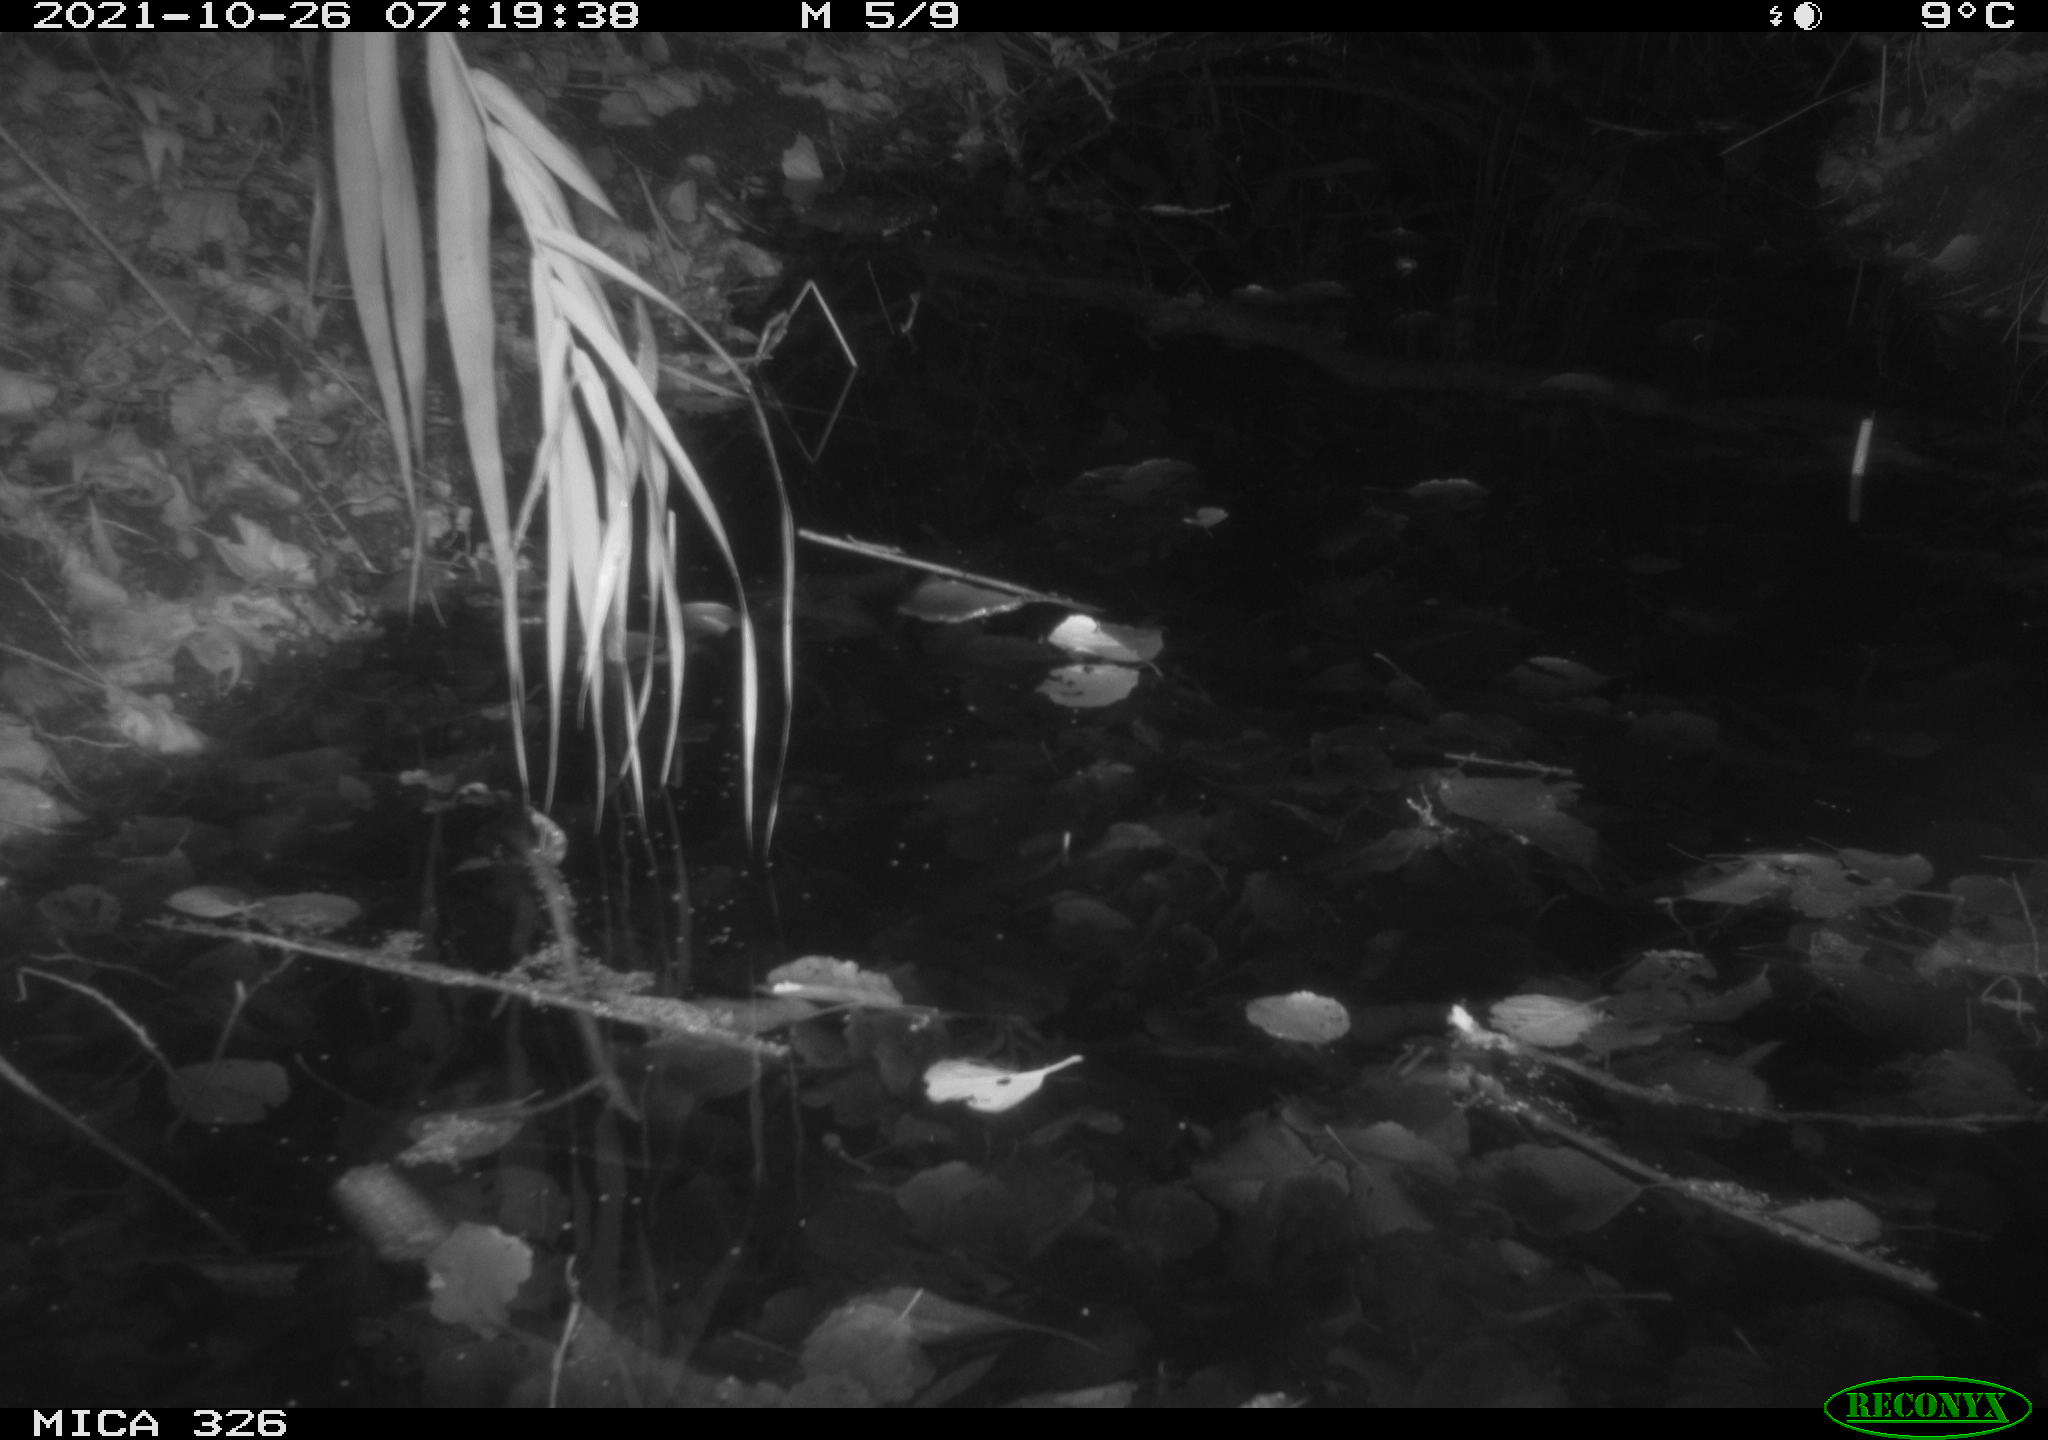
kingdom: Animalia
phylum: Chordata
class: Mammalia
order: Rodentia
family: Muridae
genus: Rattus
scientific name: Rattus norvegicus
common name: Brown rat
